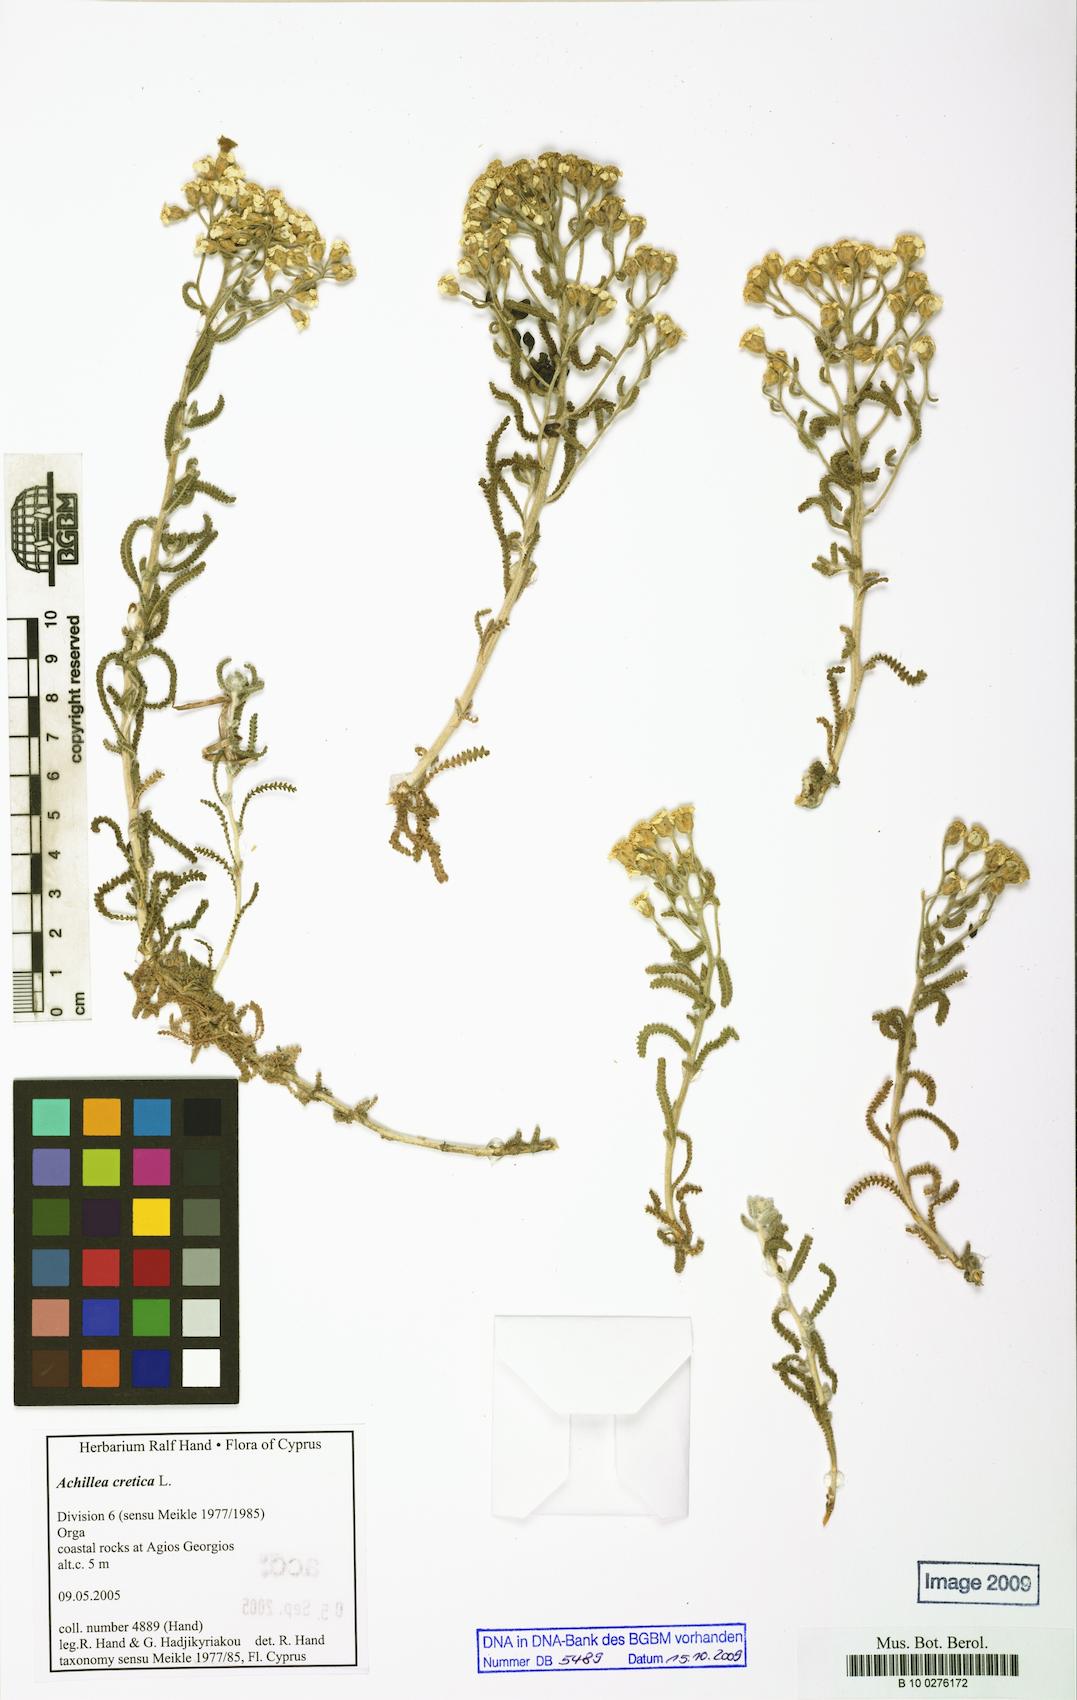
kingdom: Plantae
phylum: Tracheophyta
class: Magnoliopsida
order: Asterales
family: Asteraceae
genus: Achillea
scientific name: Achillea cretica
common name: Chamomile-leaved lavender-cotton
